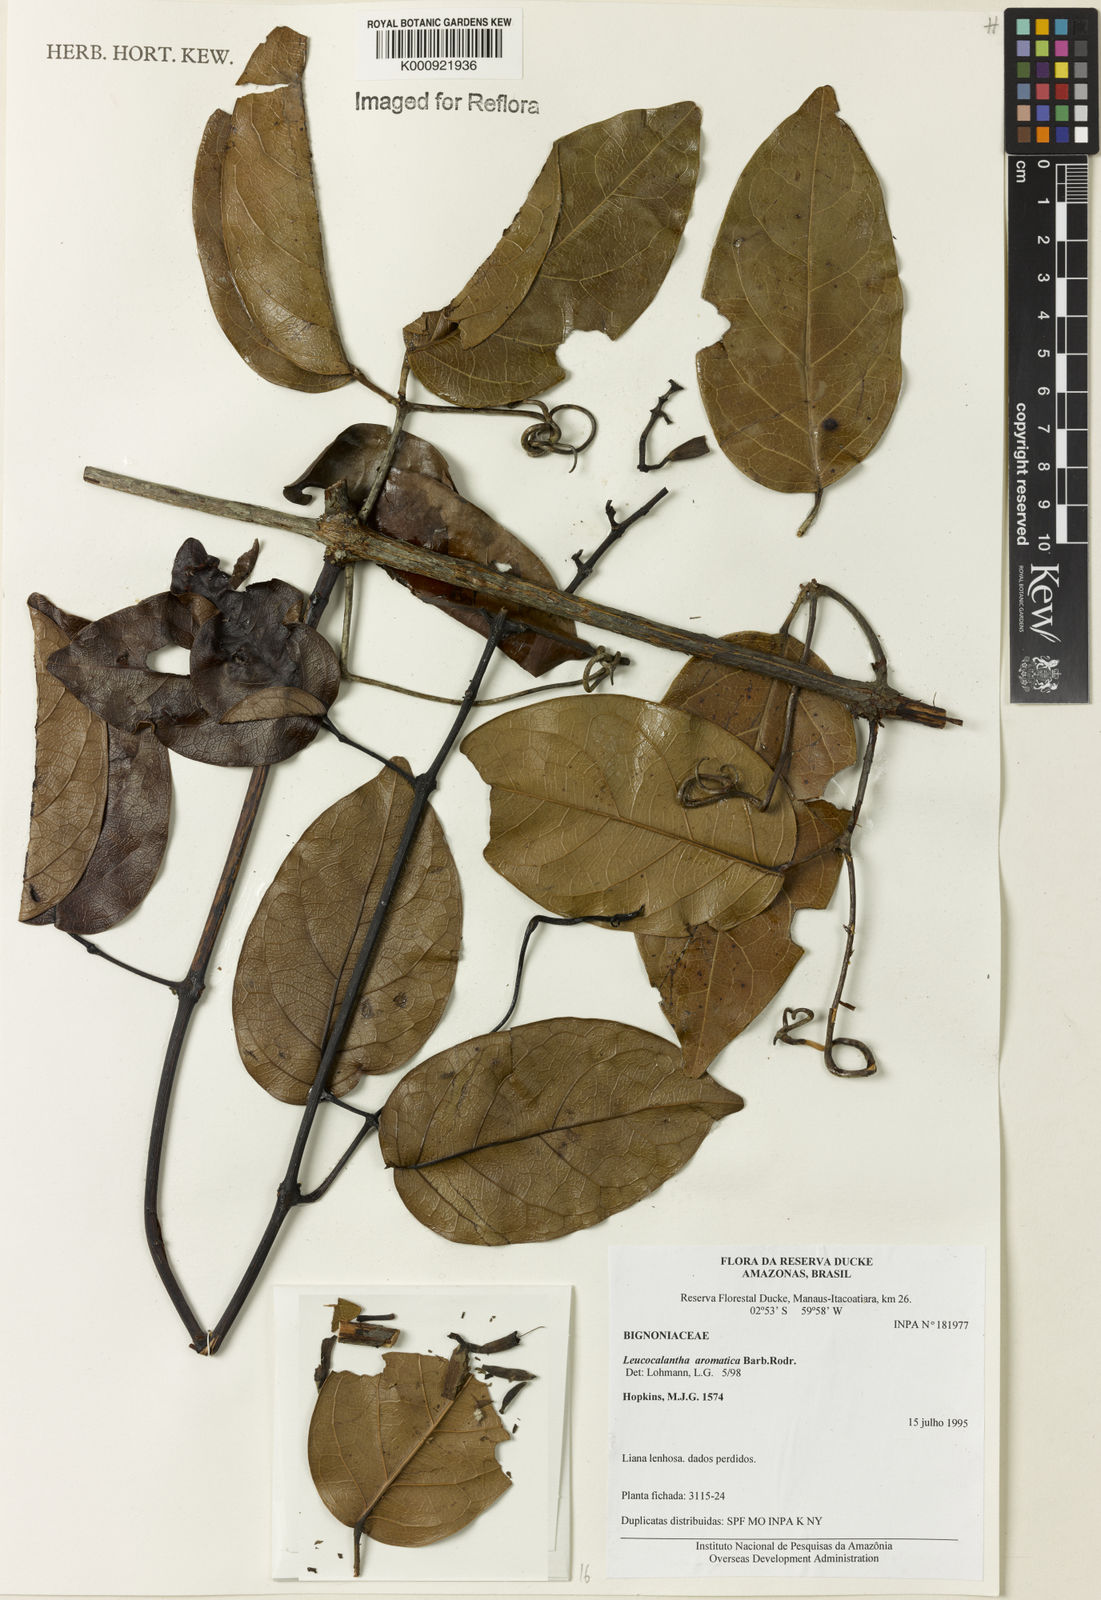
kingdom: Plantae
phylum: Tracheophyta
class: Magnoliopsida
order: Lamiales
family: Bignoniaceae
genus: Pachyptera
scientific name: Pachyptera aromatica
